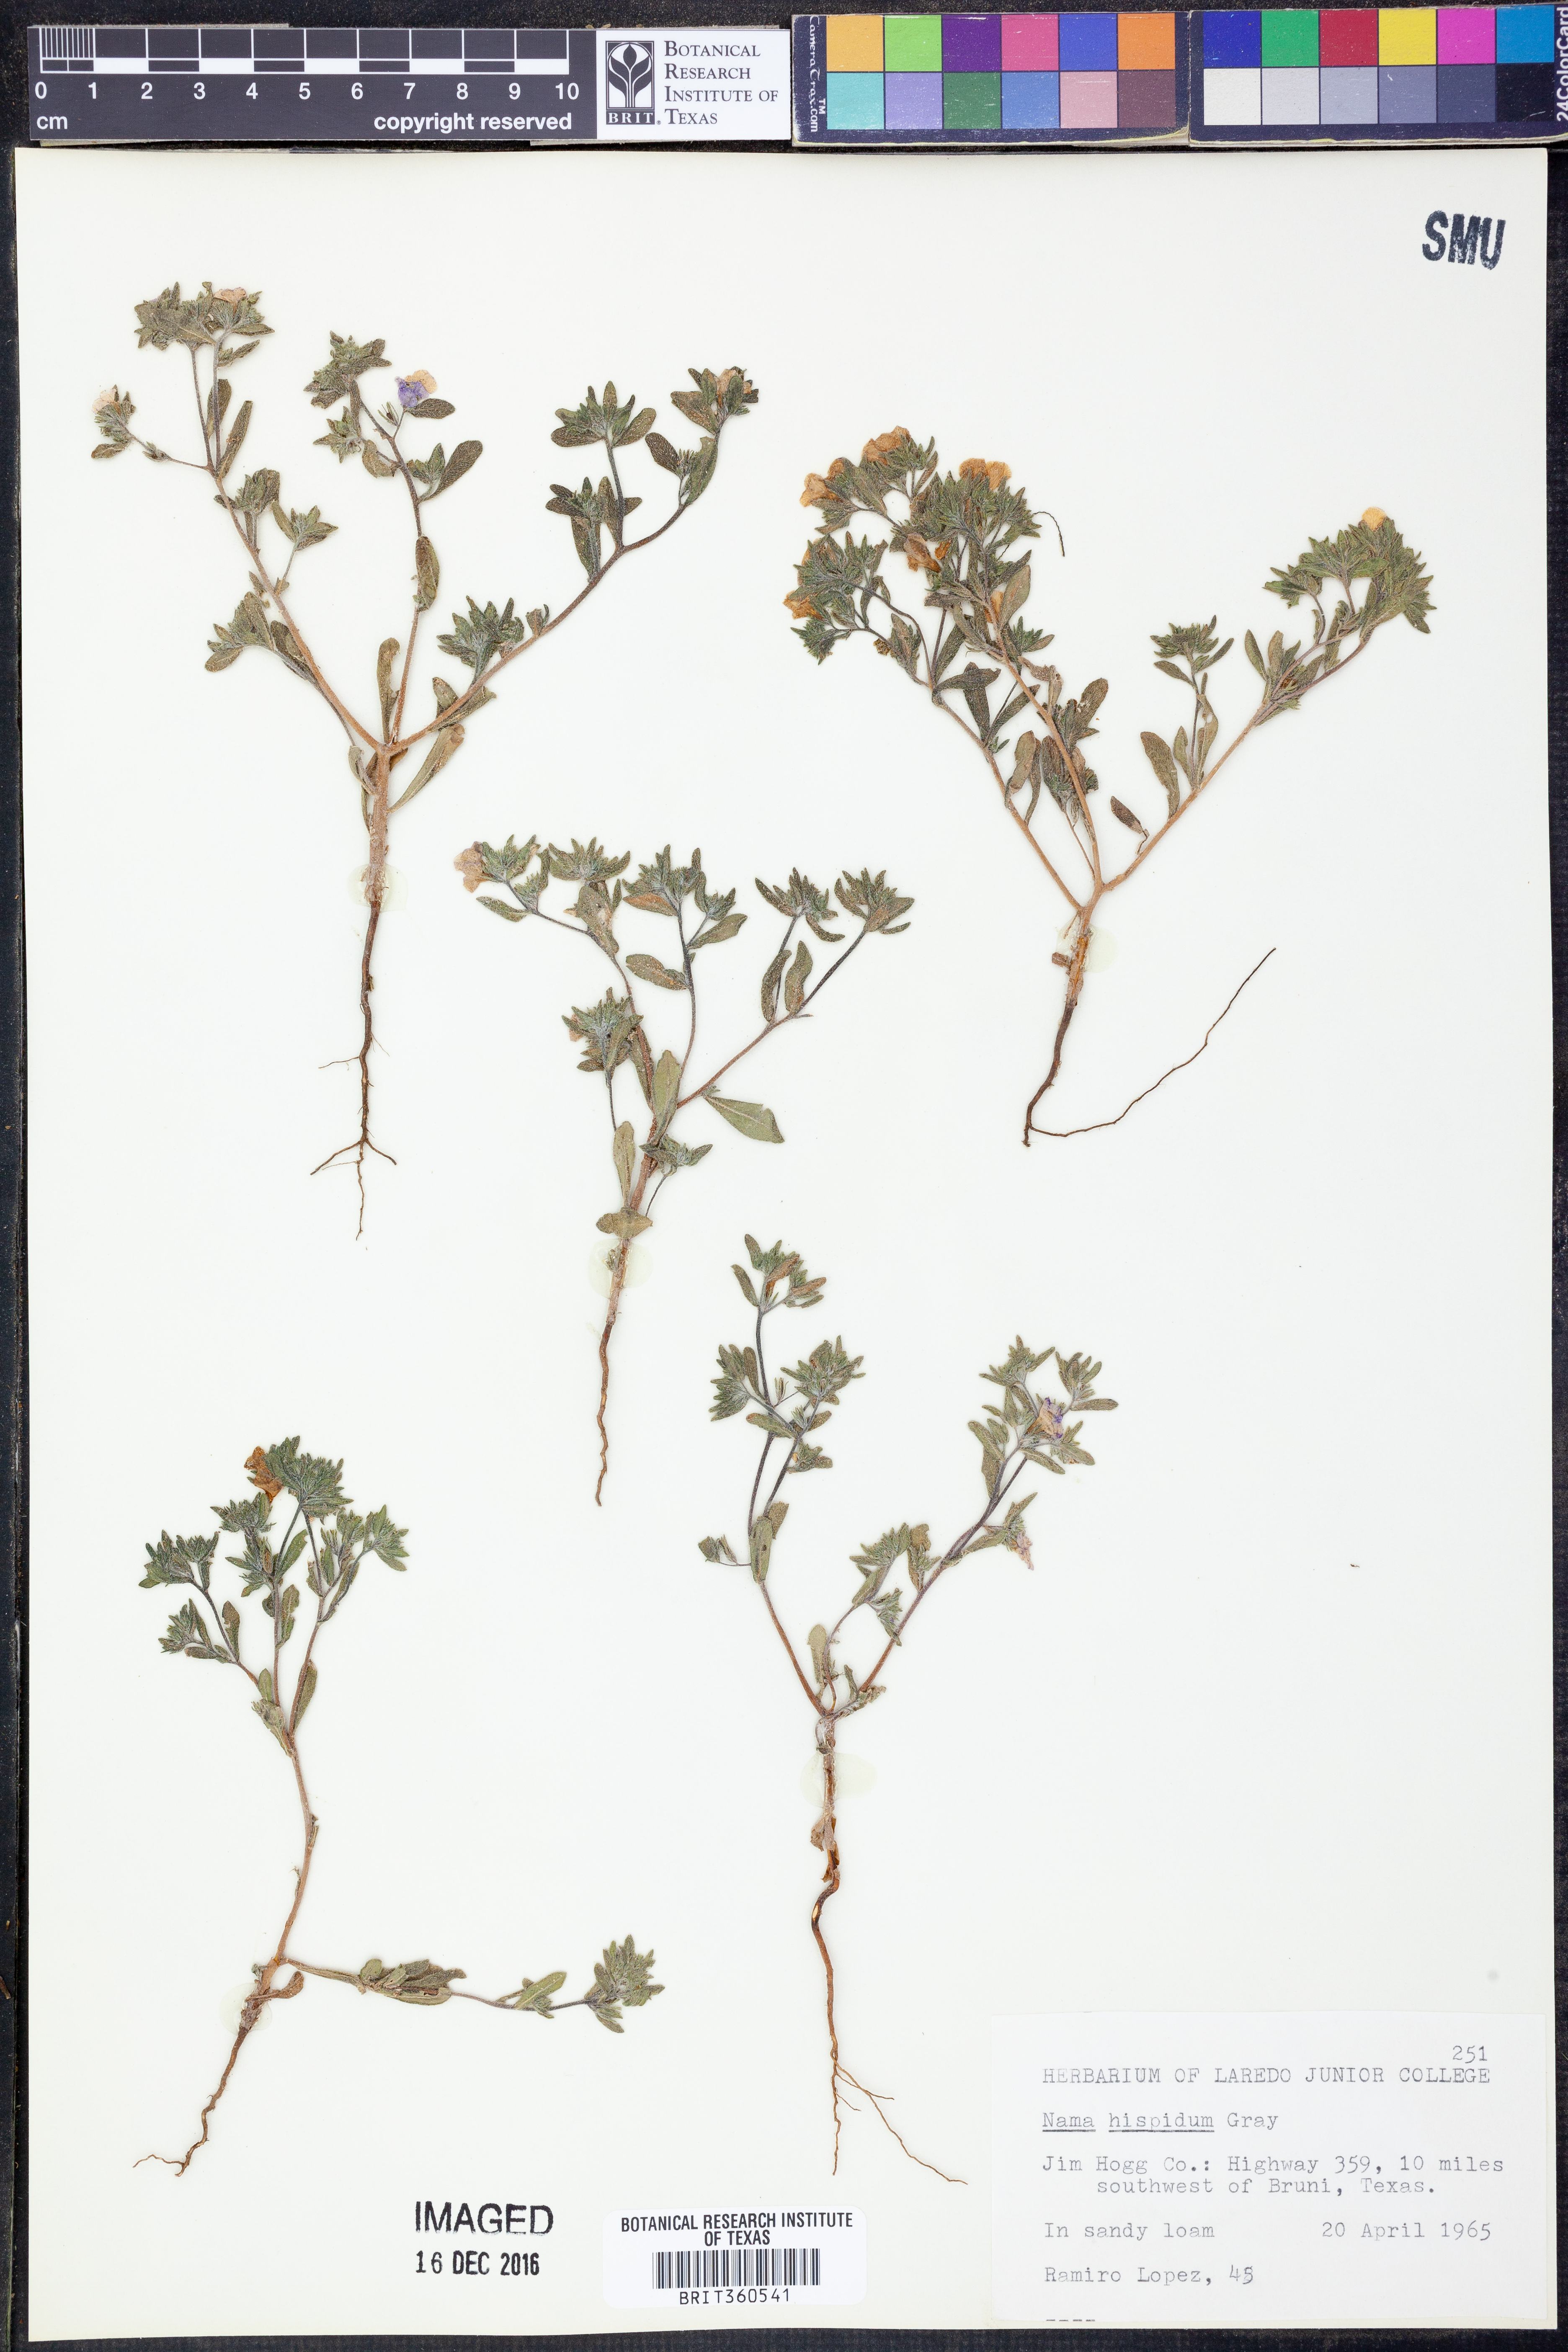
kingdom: Plantae
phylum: Tracheophyta
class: Magnoliopsida
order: Boraginales
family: Namaceae
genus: Nama
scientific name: Nama hispida
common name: Bristly nama
